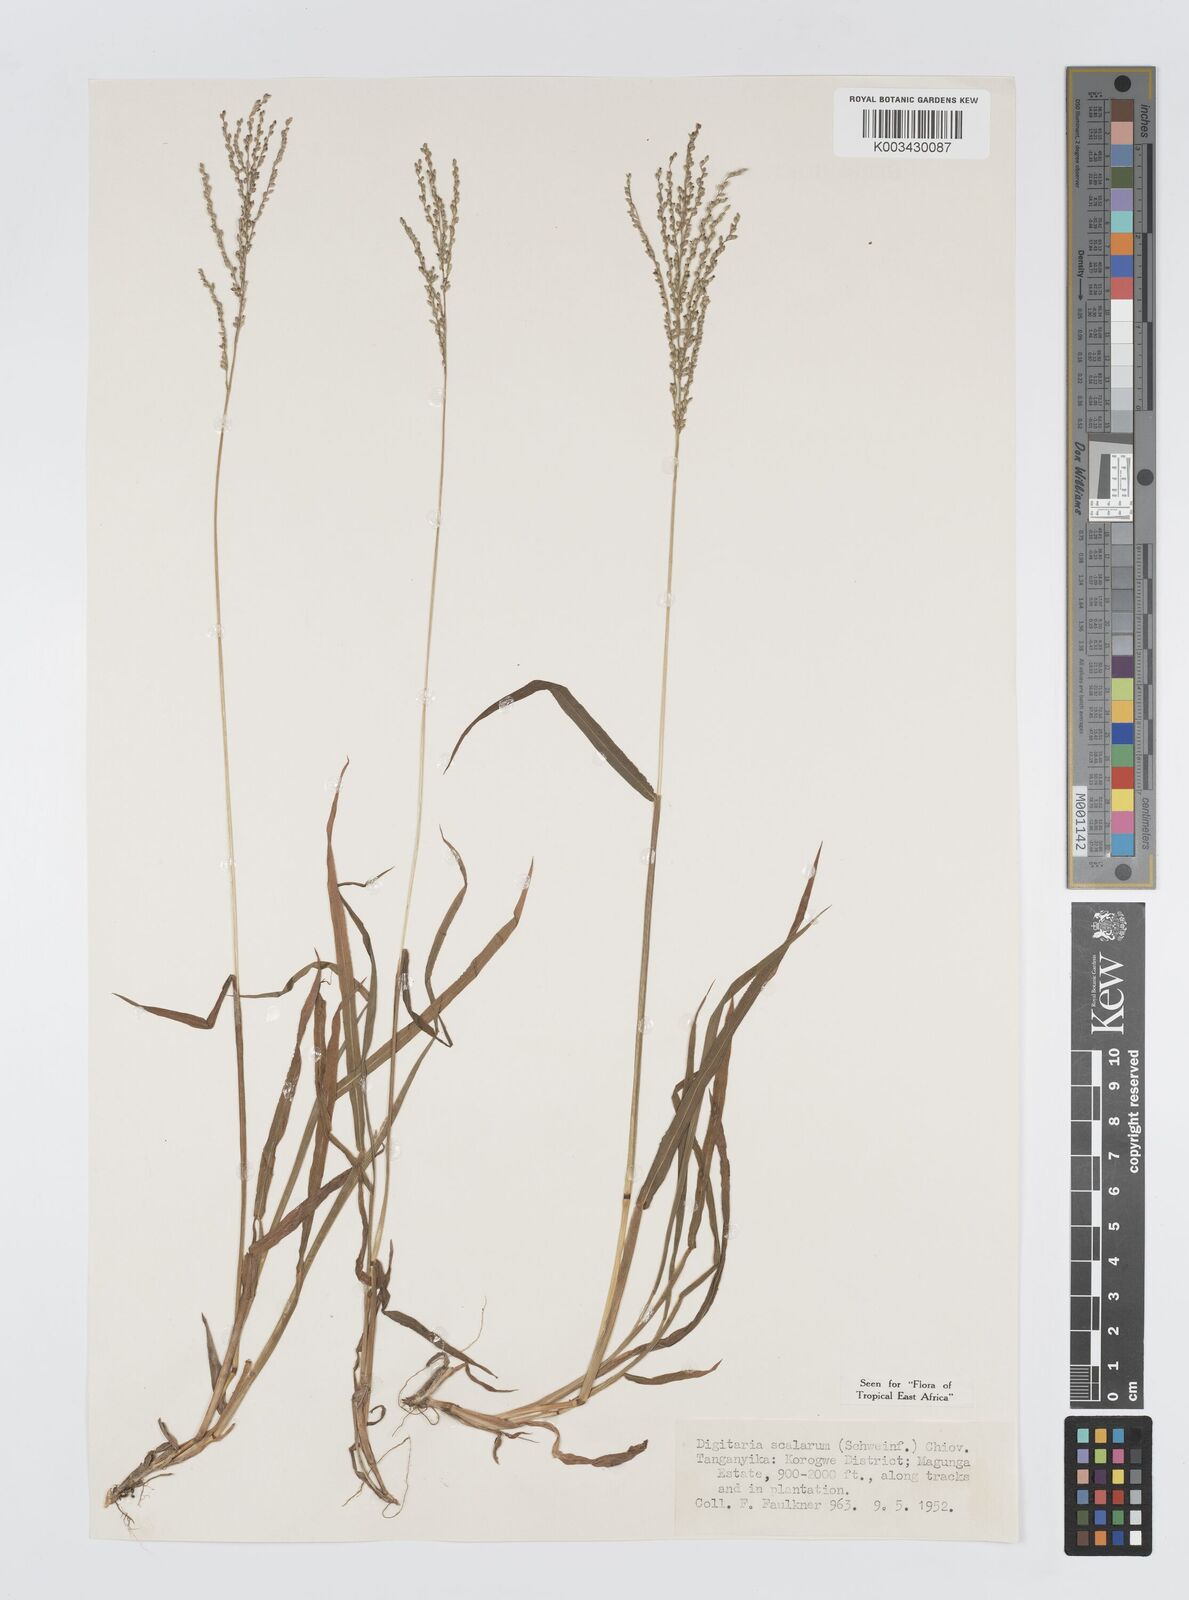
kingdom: Plantae
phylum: Tracheophyta
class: Liliopsida
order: Poales
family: Poaceae
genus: Digitaria
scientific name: Digitaria abyssinica
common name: African couchgrass
